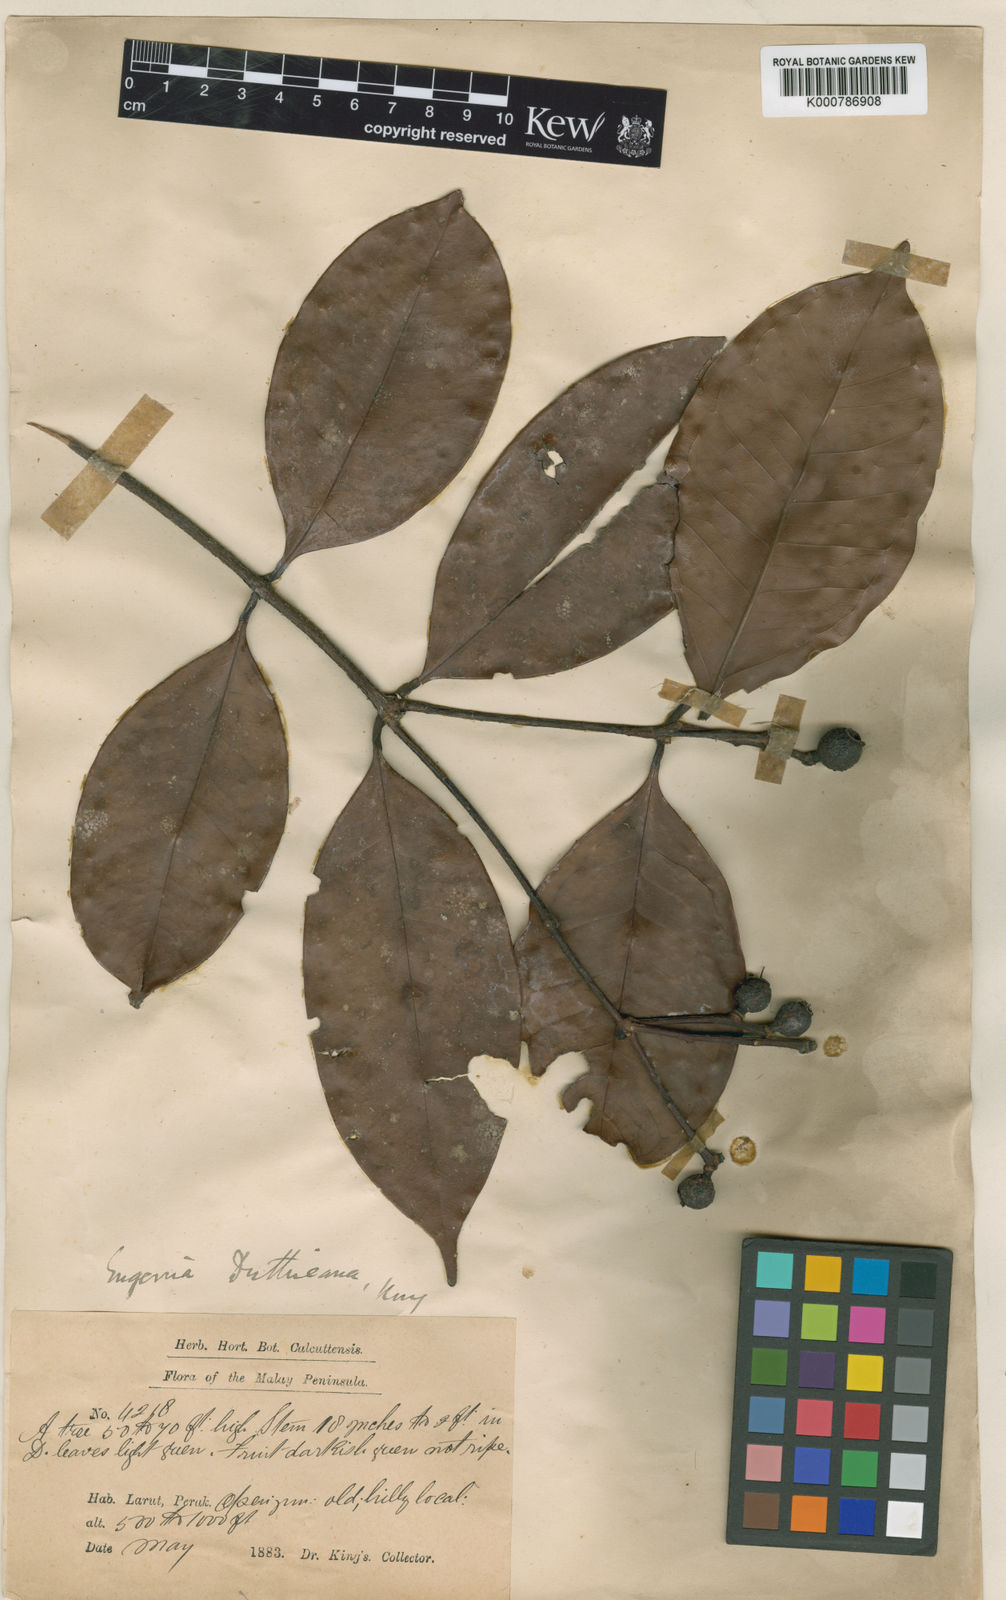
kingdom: Plantae
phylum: Tracheophyta
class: Magnoliopsida
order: Myrtales
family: Myrtaceae
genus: Syzygium
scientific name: Syzygium duthieanum
